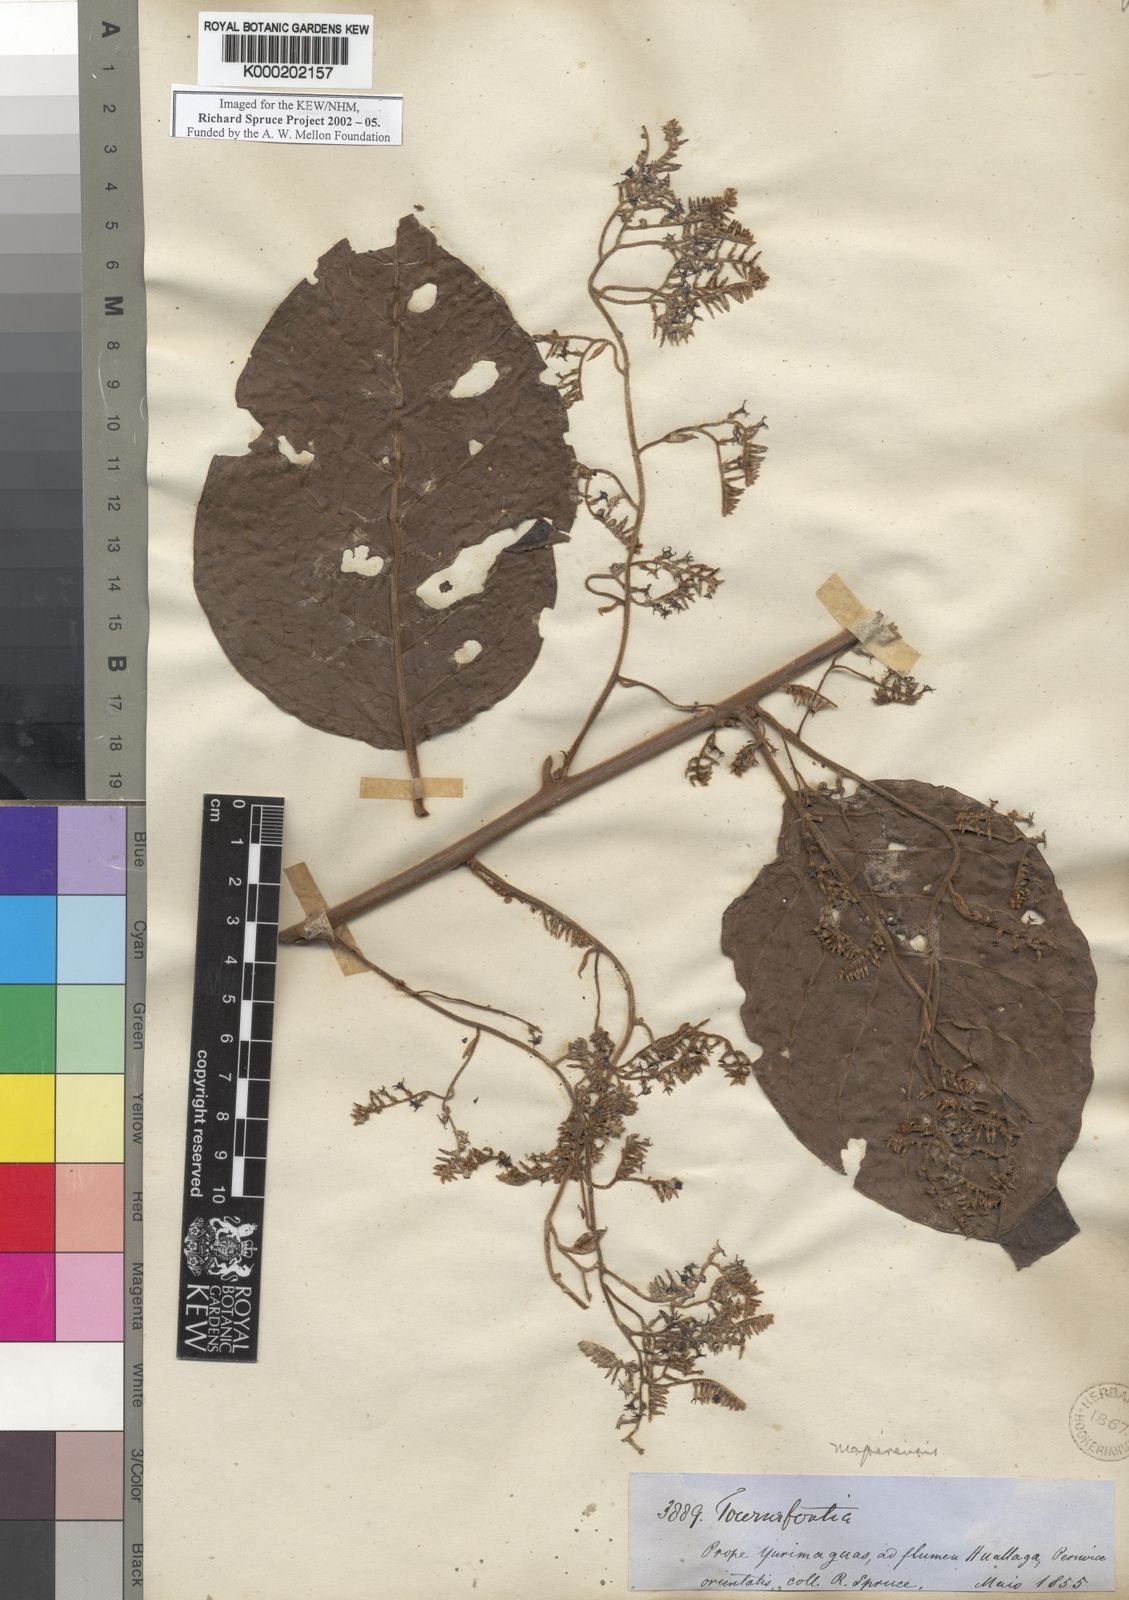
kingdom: Plantae
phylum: Tracheophyta
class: Magnoliopsida
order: Boraginales
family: Heliotropiaceae
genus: Myriopus
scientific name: Myriopus mapirensis
